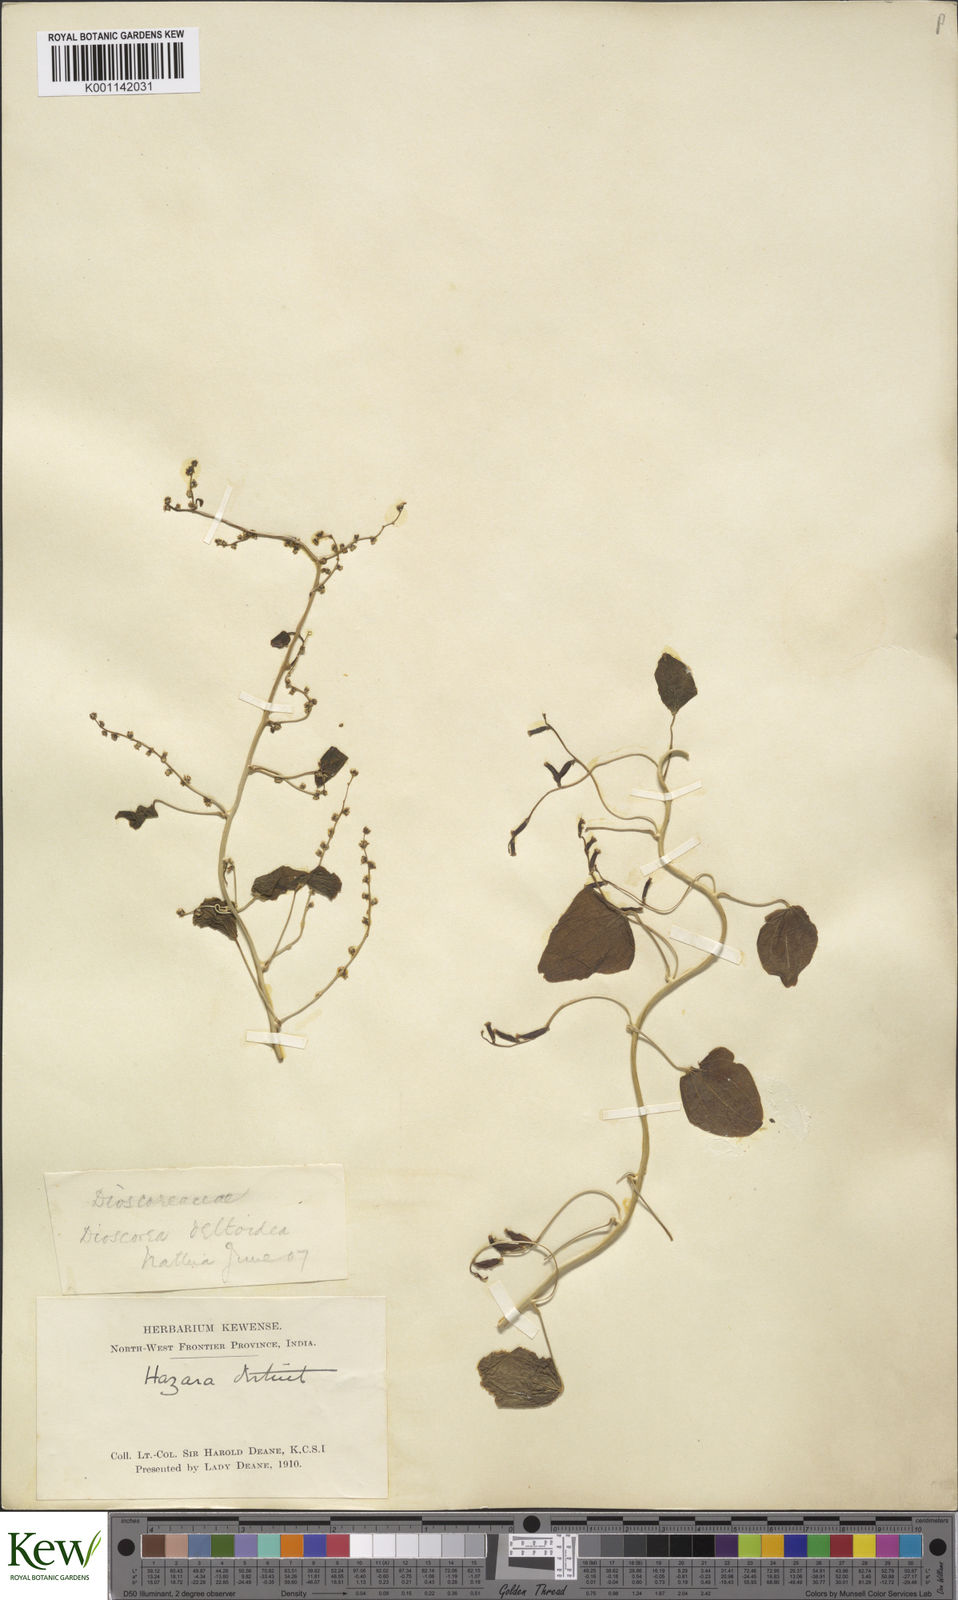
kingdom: Plantae
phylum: Tracheophyta
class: Liliopsida
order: Dioscoreales
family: Dioscoreaceae
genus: Dioscorea
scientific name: Dioscorea deltoidea
